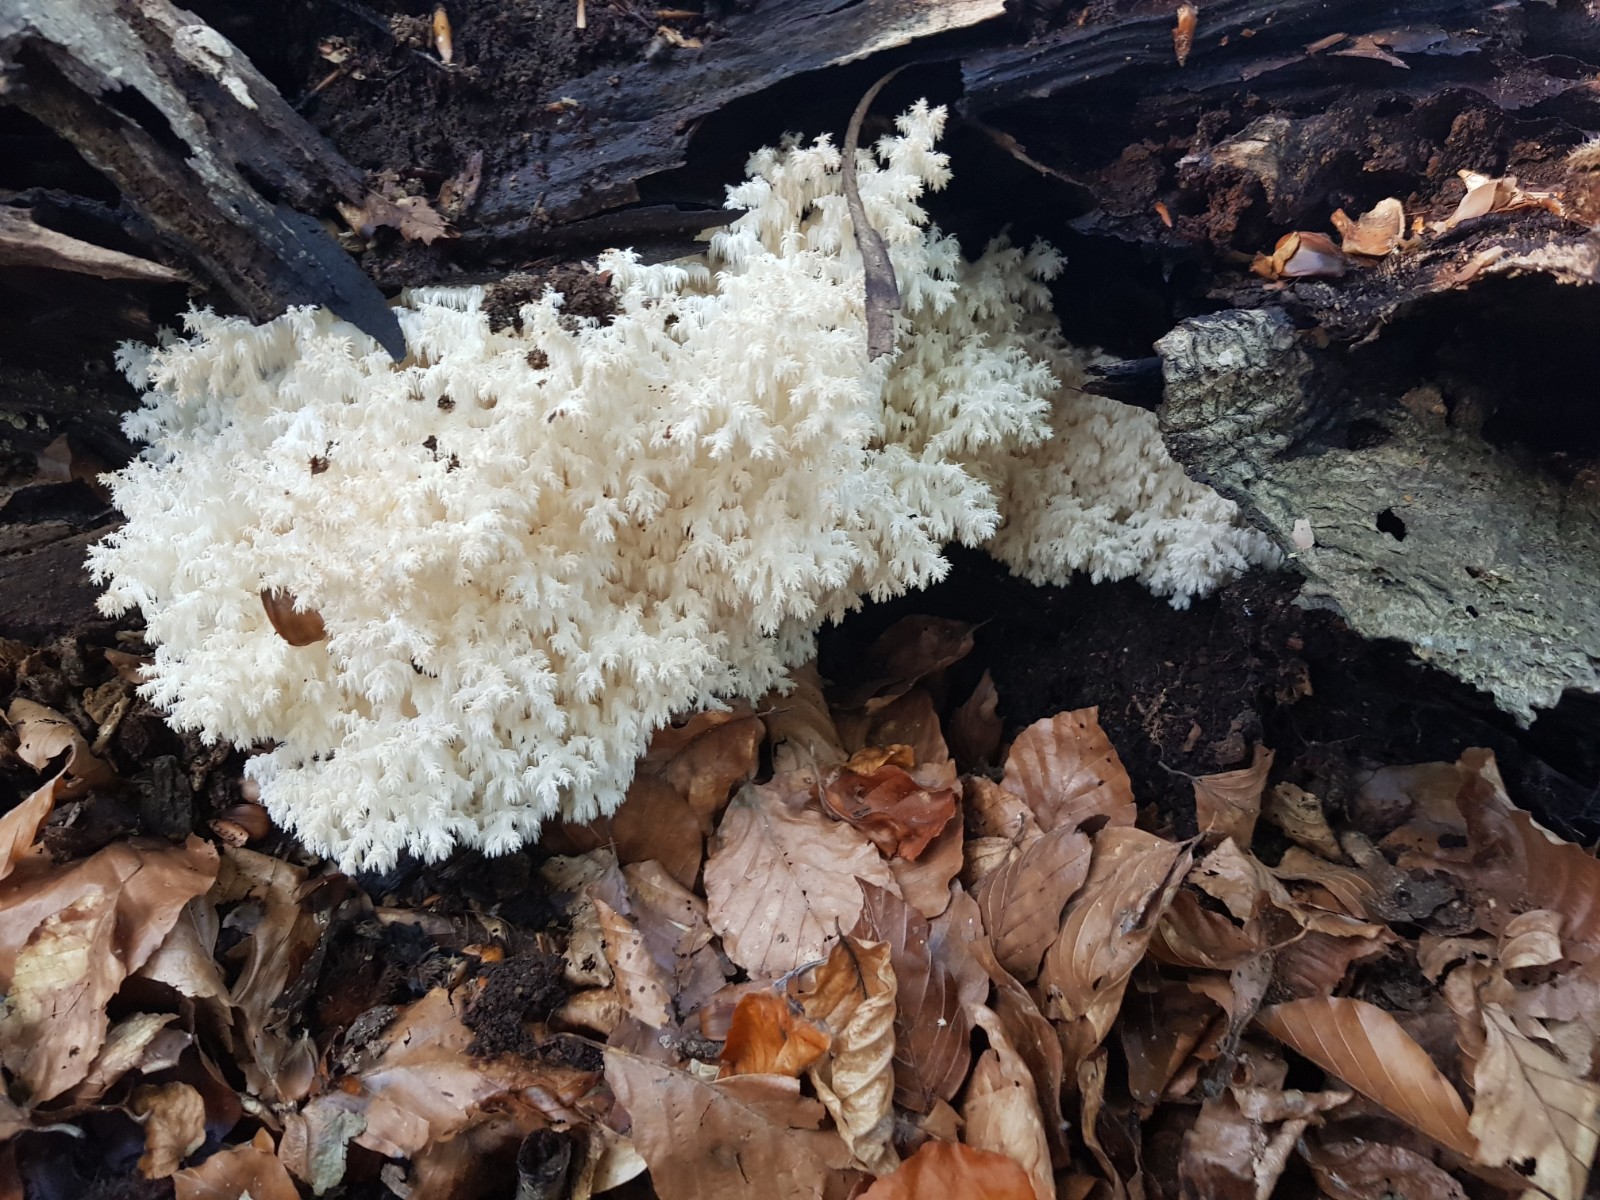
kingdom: Fungi
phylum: Basidiomycota
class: Agaricomycetes
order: Russulales
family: Hericiaceae
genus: Hericium
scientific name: Hericium coralloides
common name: koralpigsvamp
